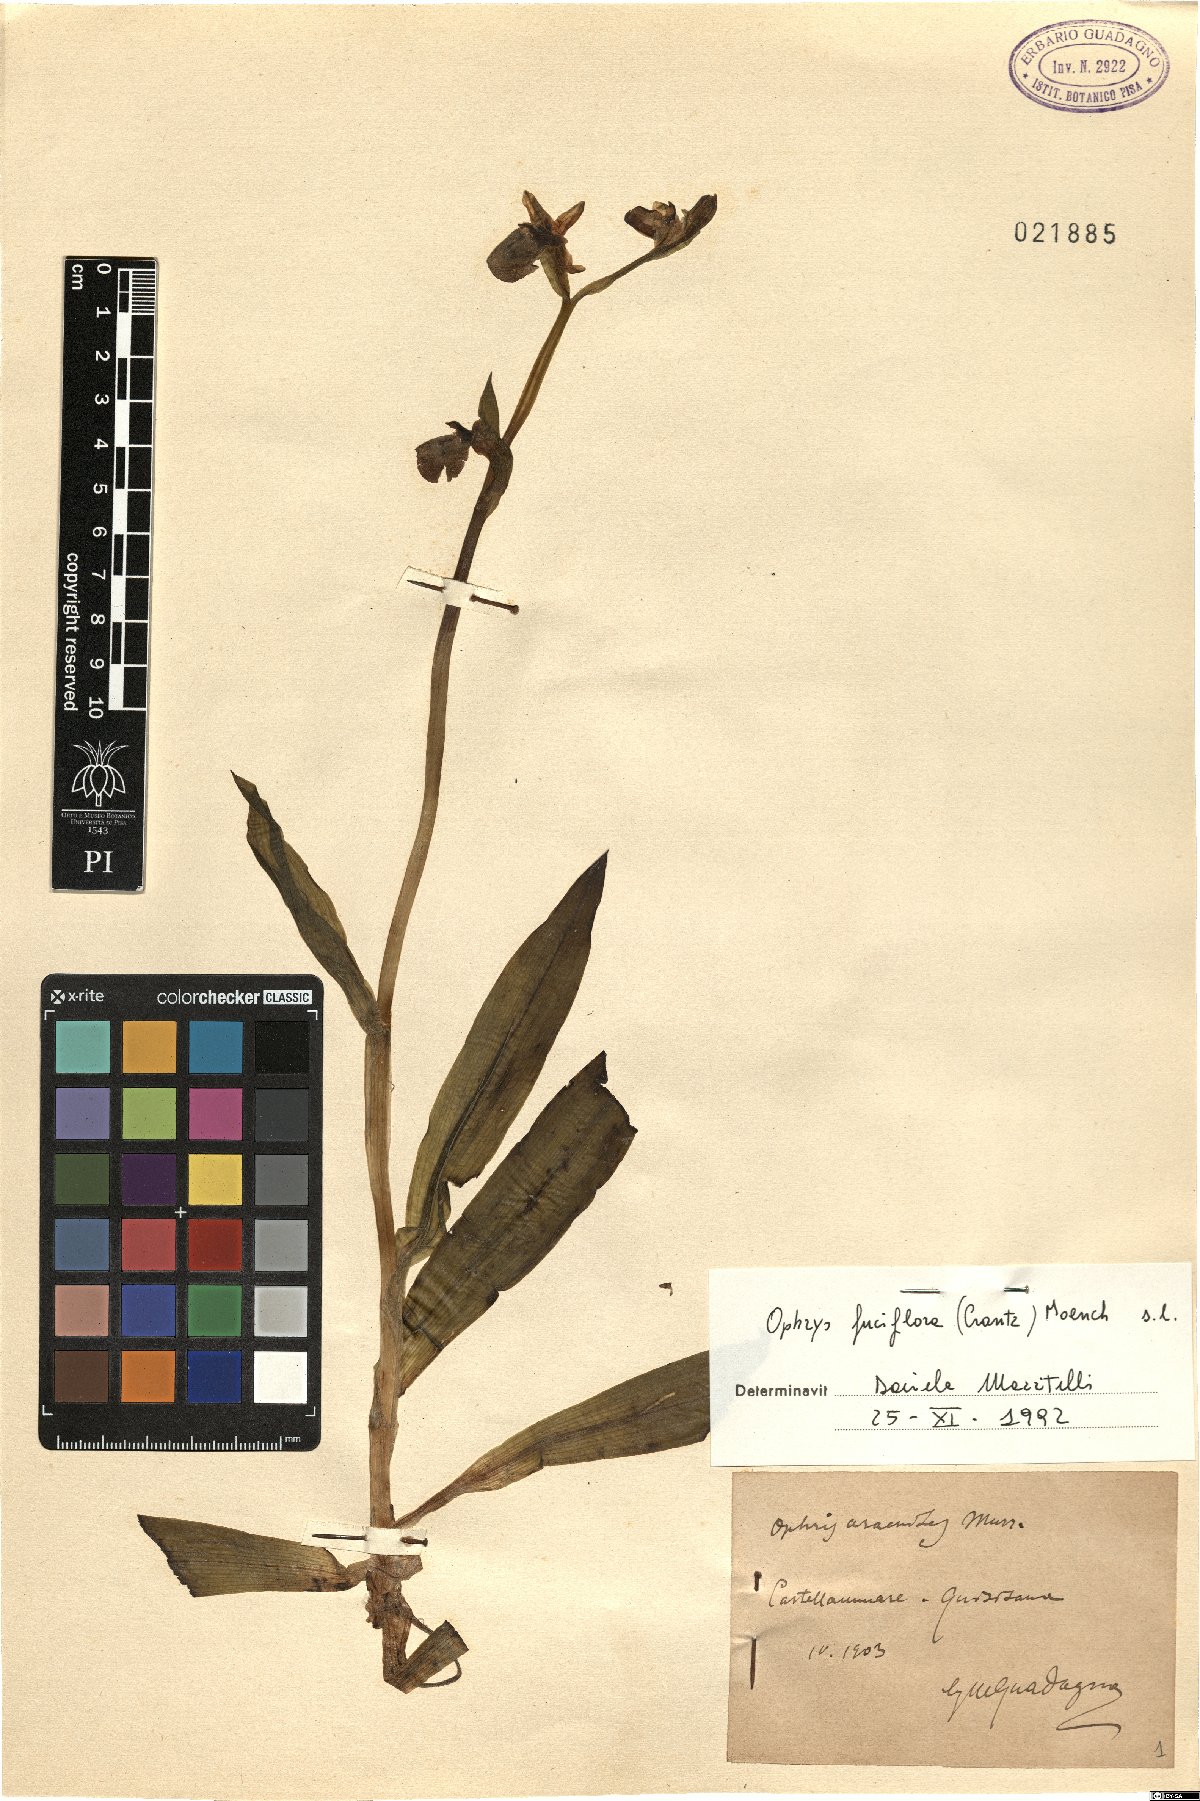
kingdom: Plantae
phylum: Tracheophyta
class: Liliopsida
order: Asparagales
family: Orchidaceae
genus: Ophrys
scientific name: Ophrys holosericea
